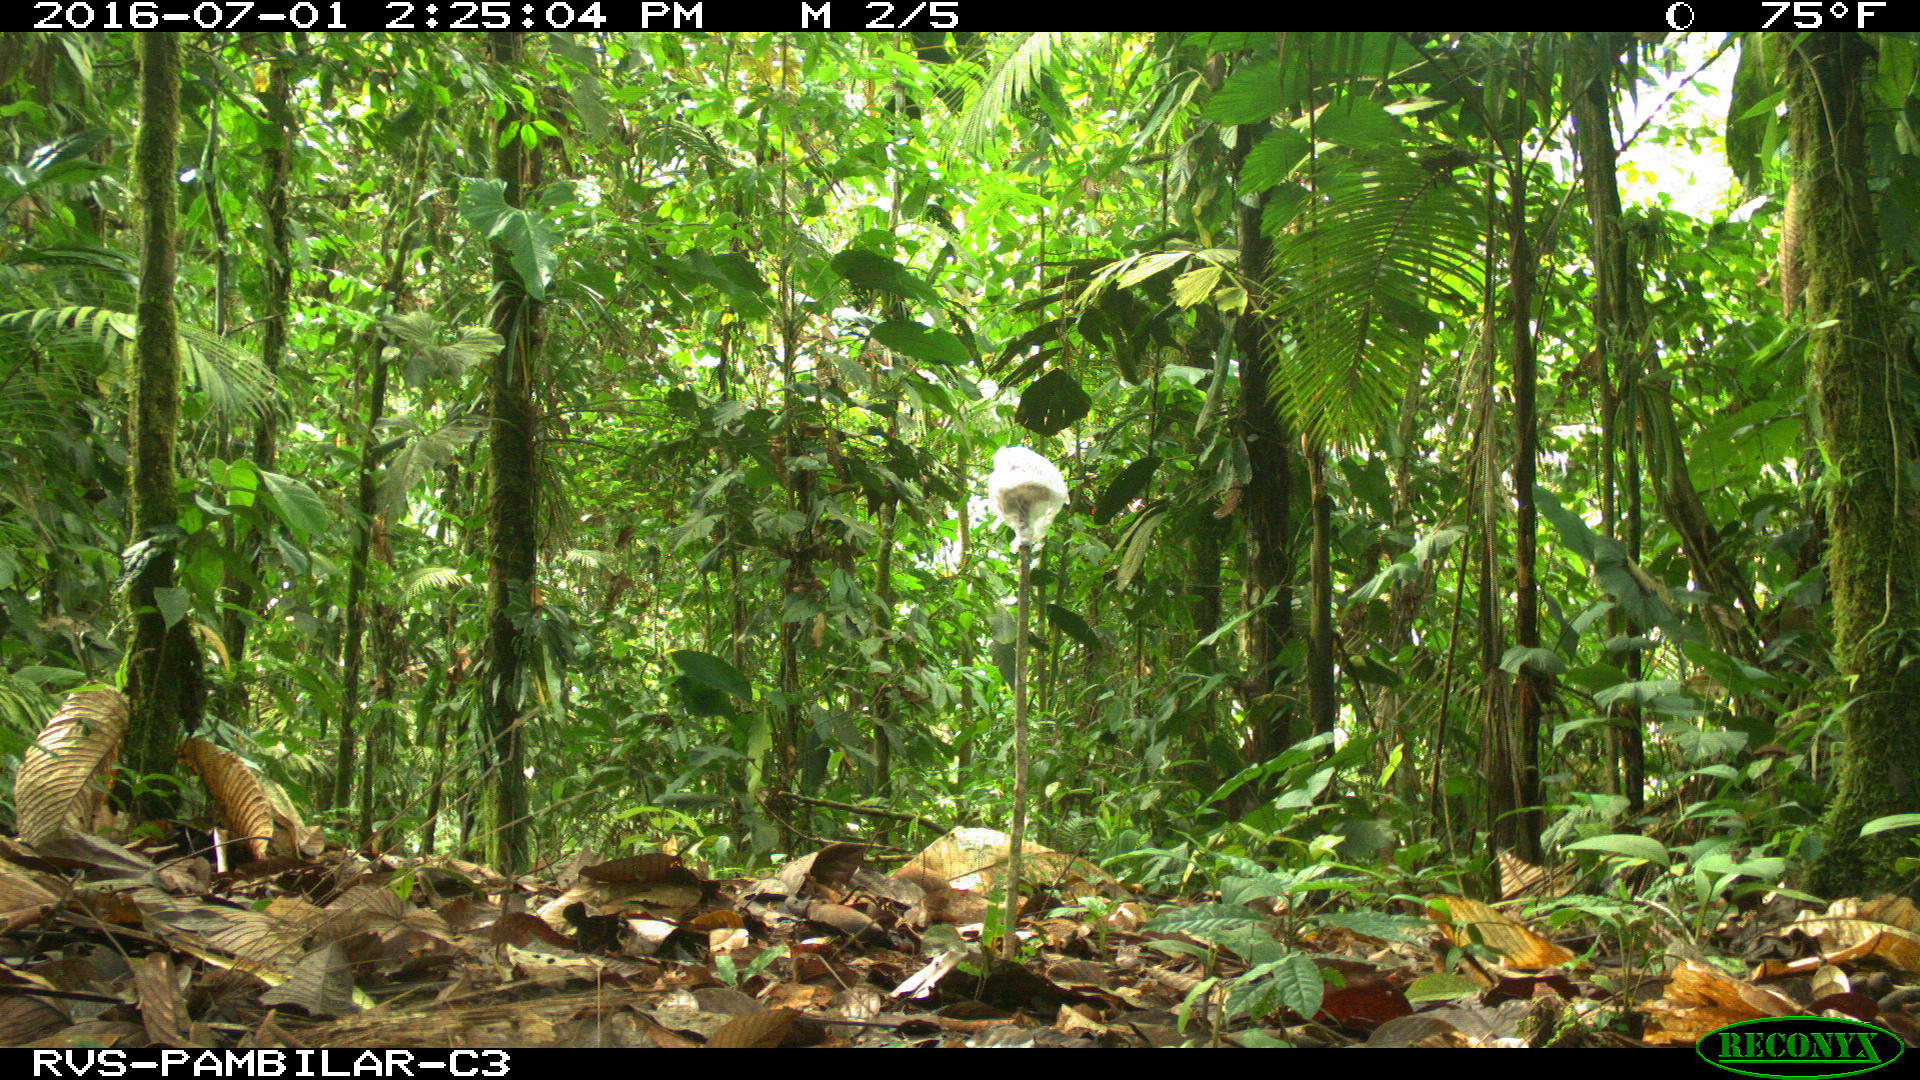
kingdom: Animalia
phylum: Chordata
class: Mammalia
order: Carnivora
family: Canidae
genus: Canis
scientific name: Canis lupus
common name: Gray wolf
